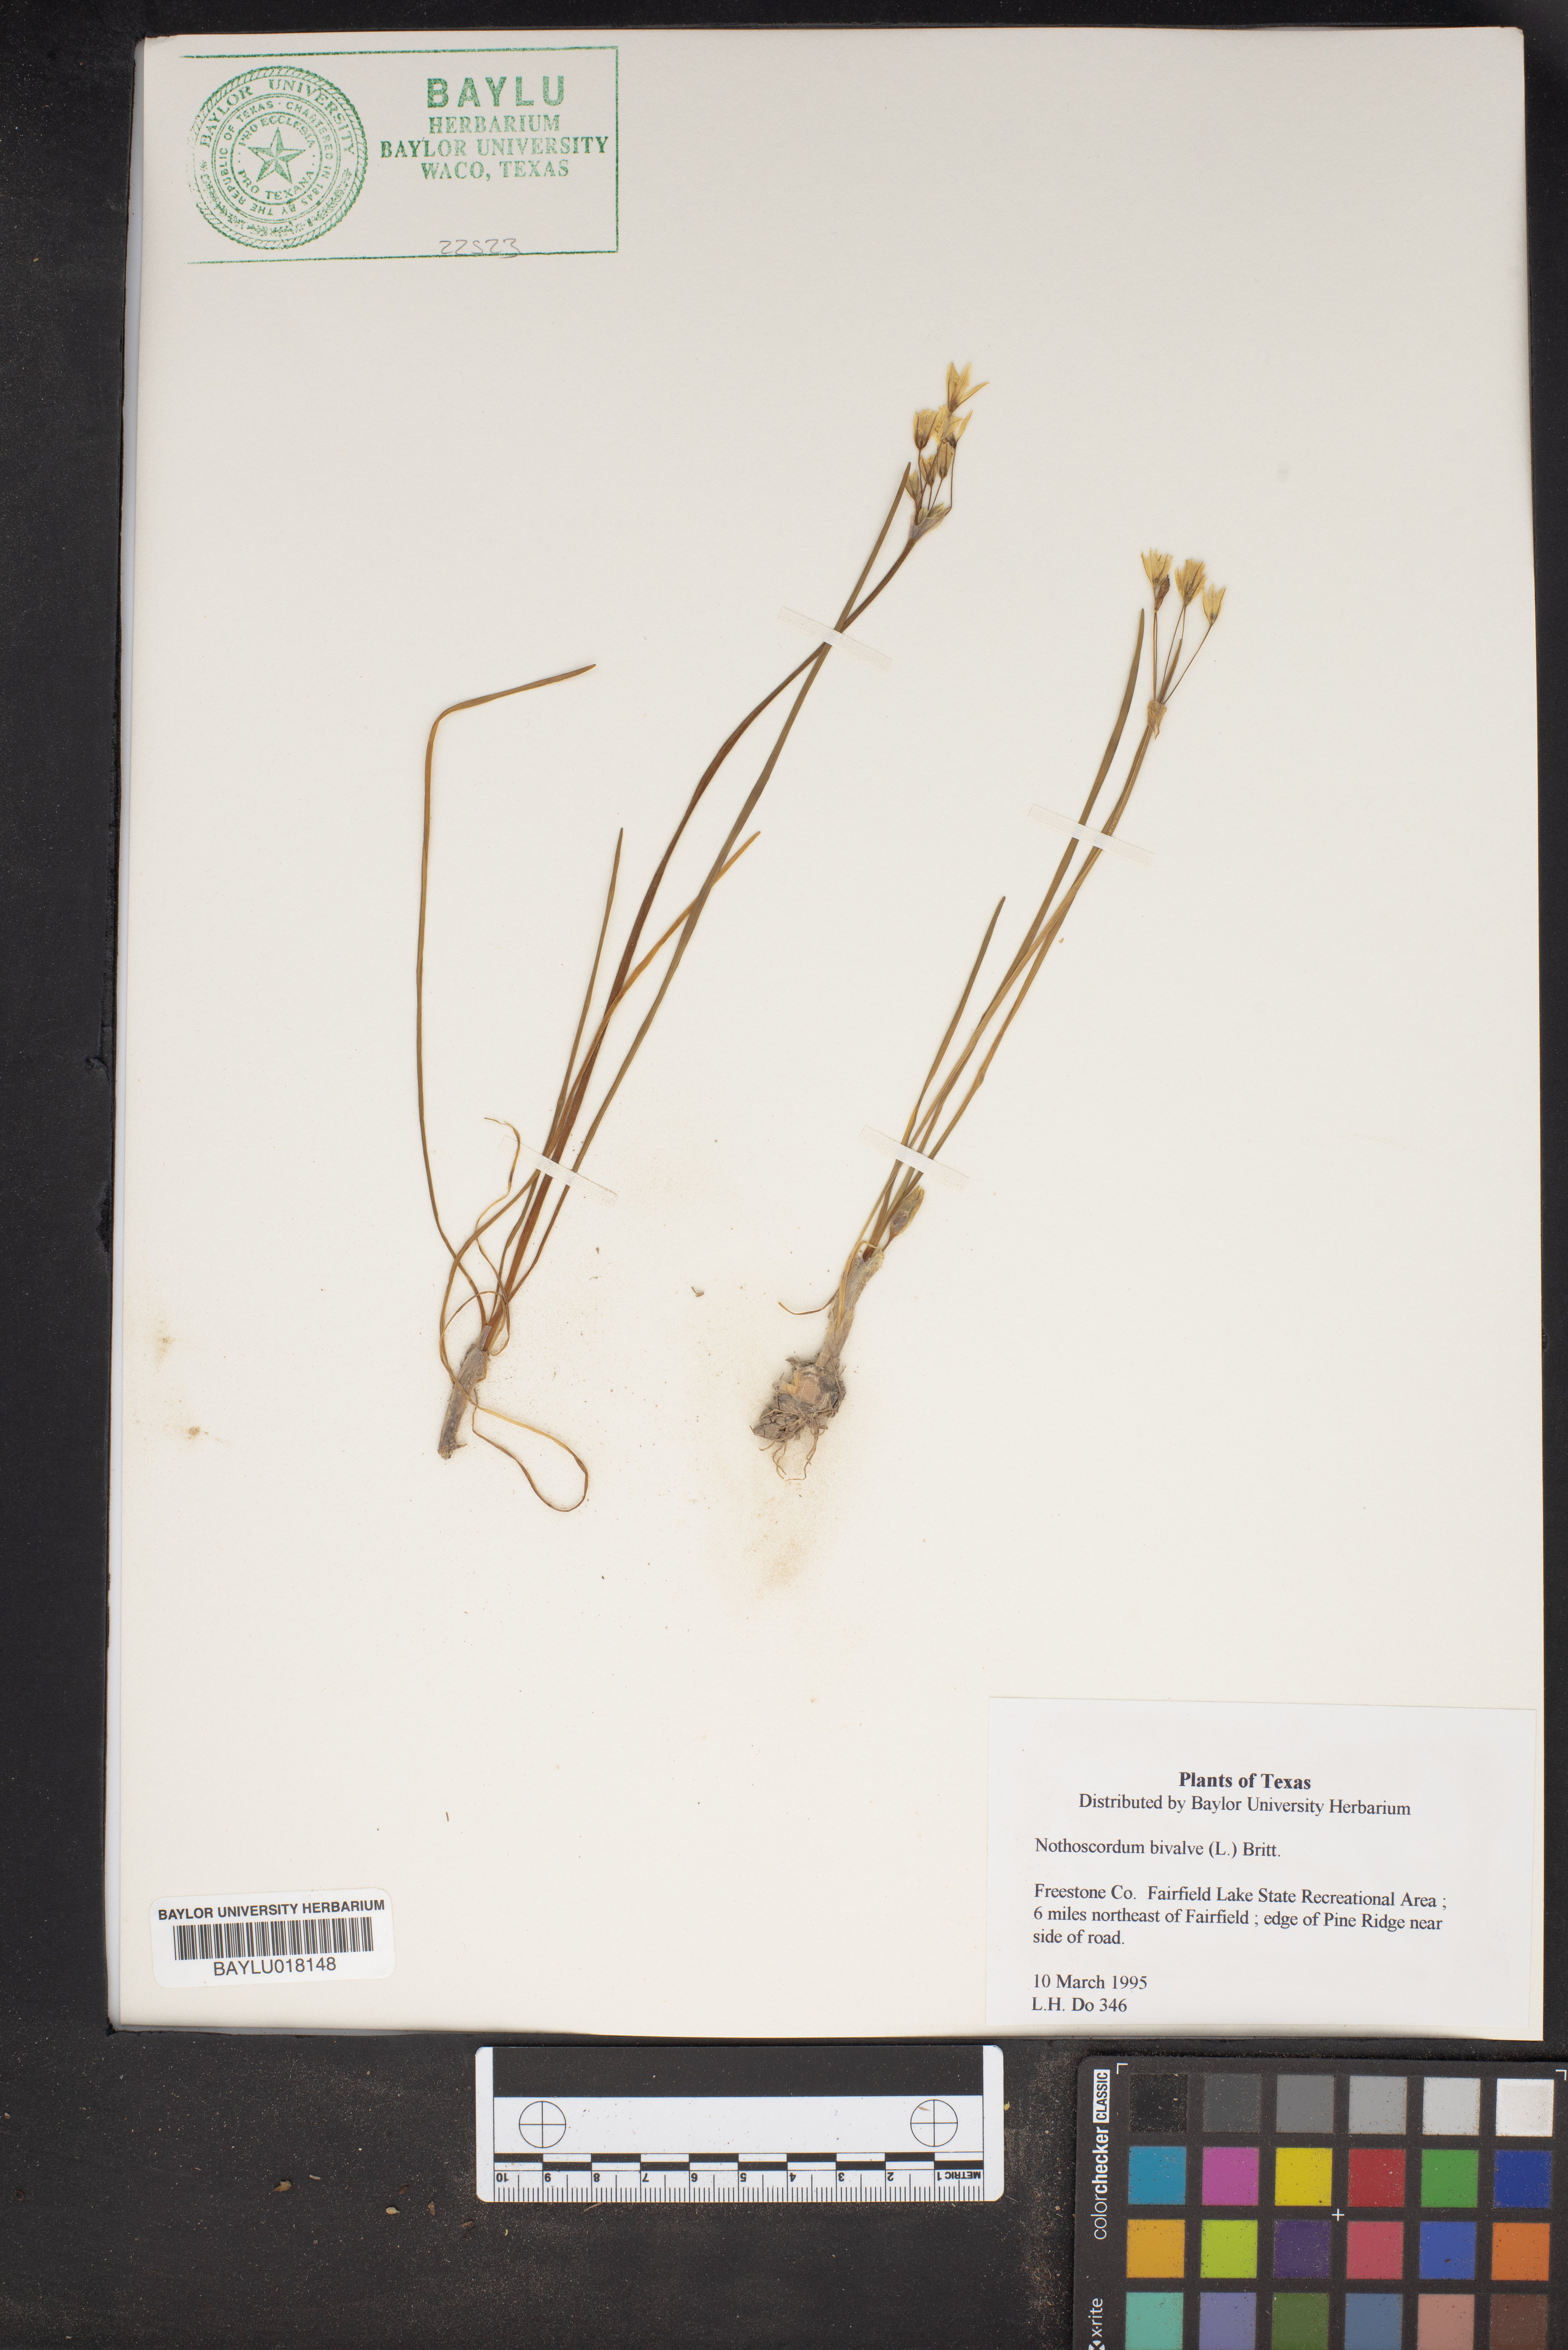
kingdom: Plantae
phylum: Tracheophyta
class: Liliopsida
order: Asparagales
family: Amaryllidaceae
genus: Nothoscordum
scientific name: Nothoscordum bivalve
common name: Crow-poison
